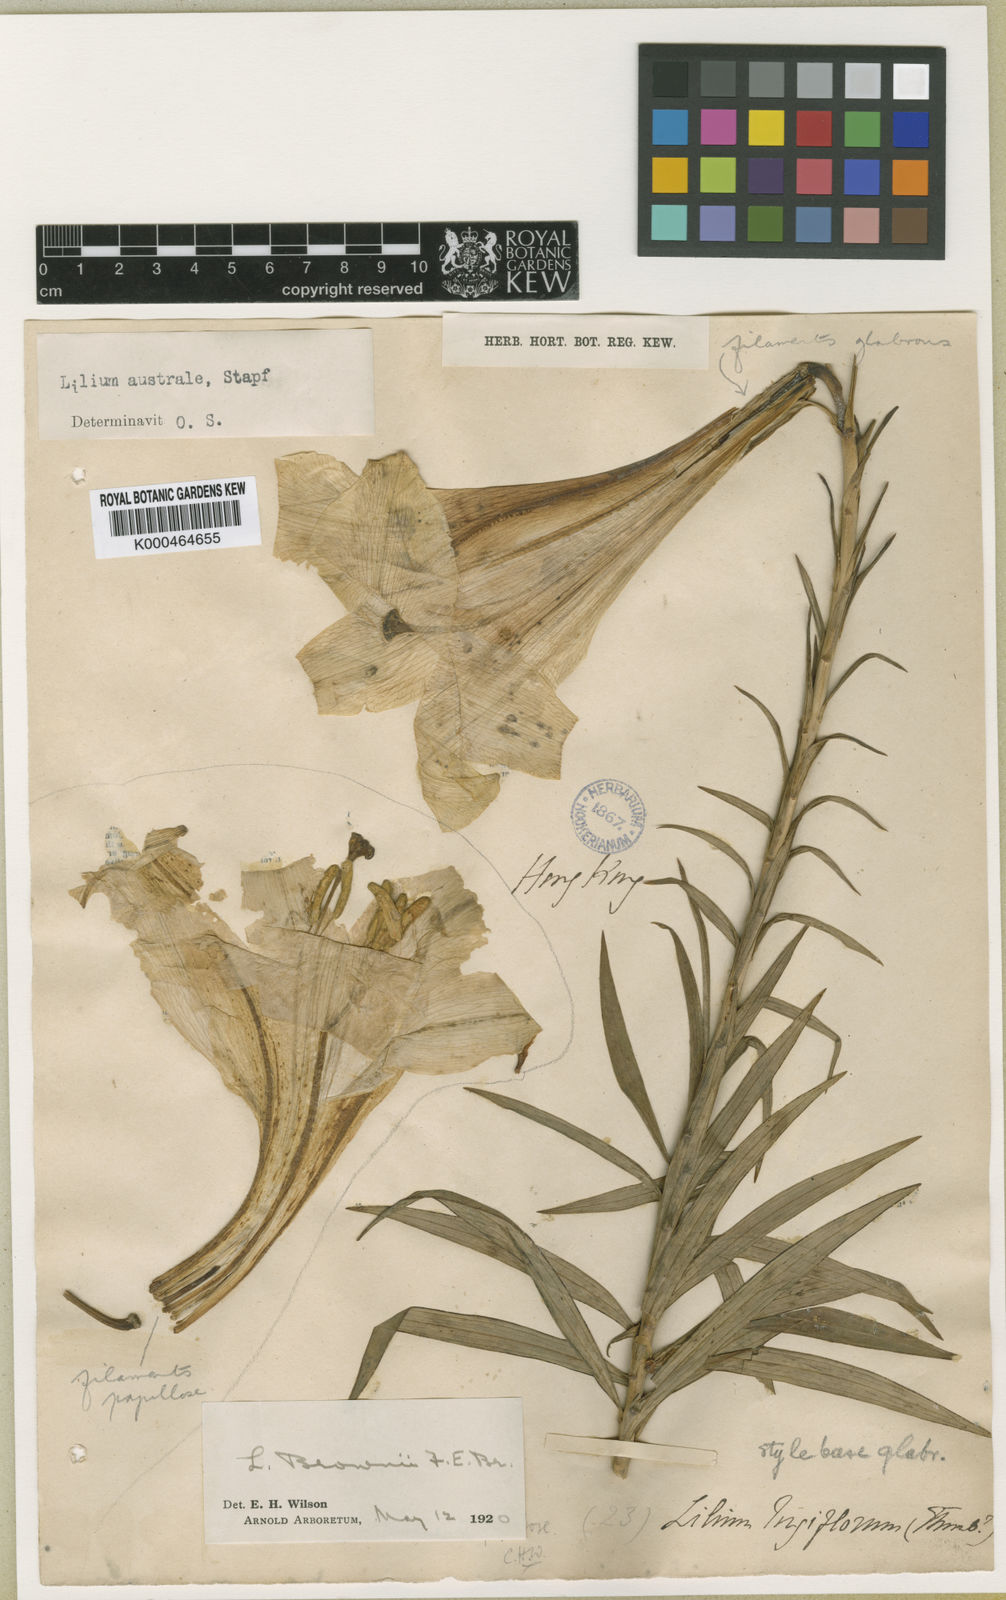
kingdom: Plantae
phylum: Tracheophyta
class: Liliopsida
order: Liliales
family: Liliaceae
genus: Lilium
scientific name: Lilium
